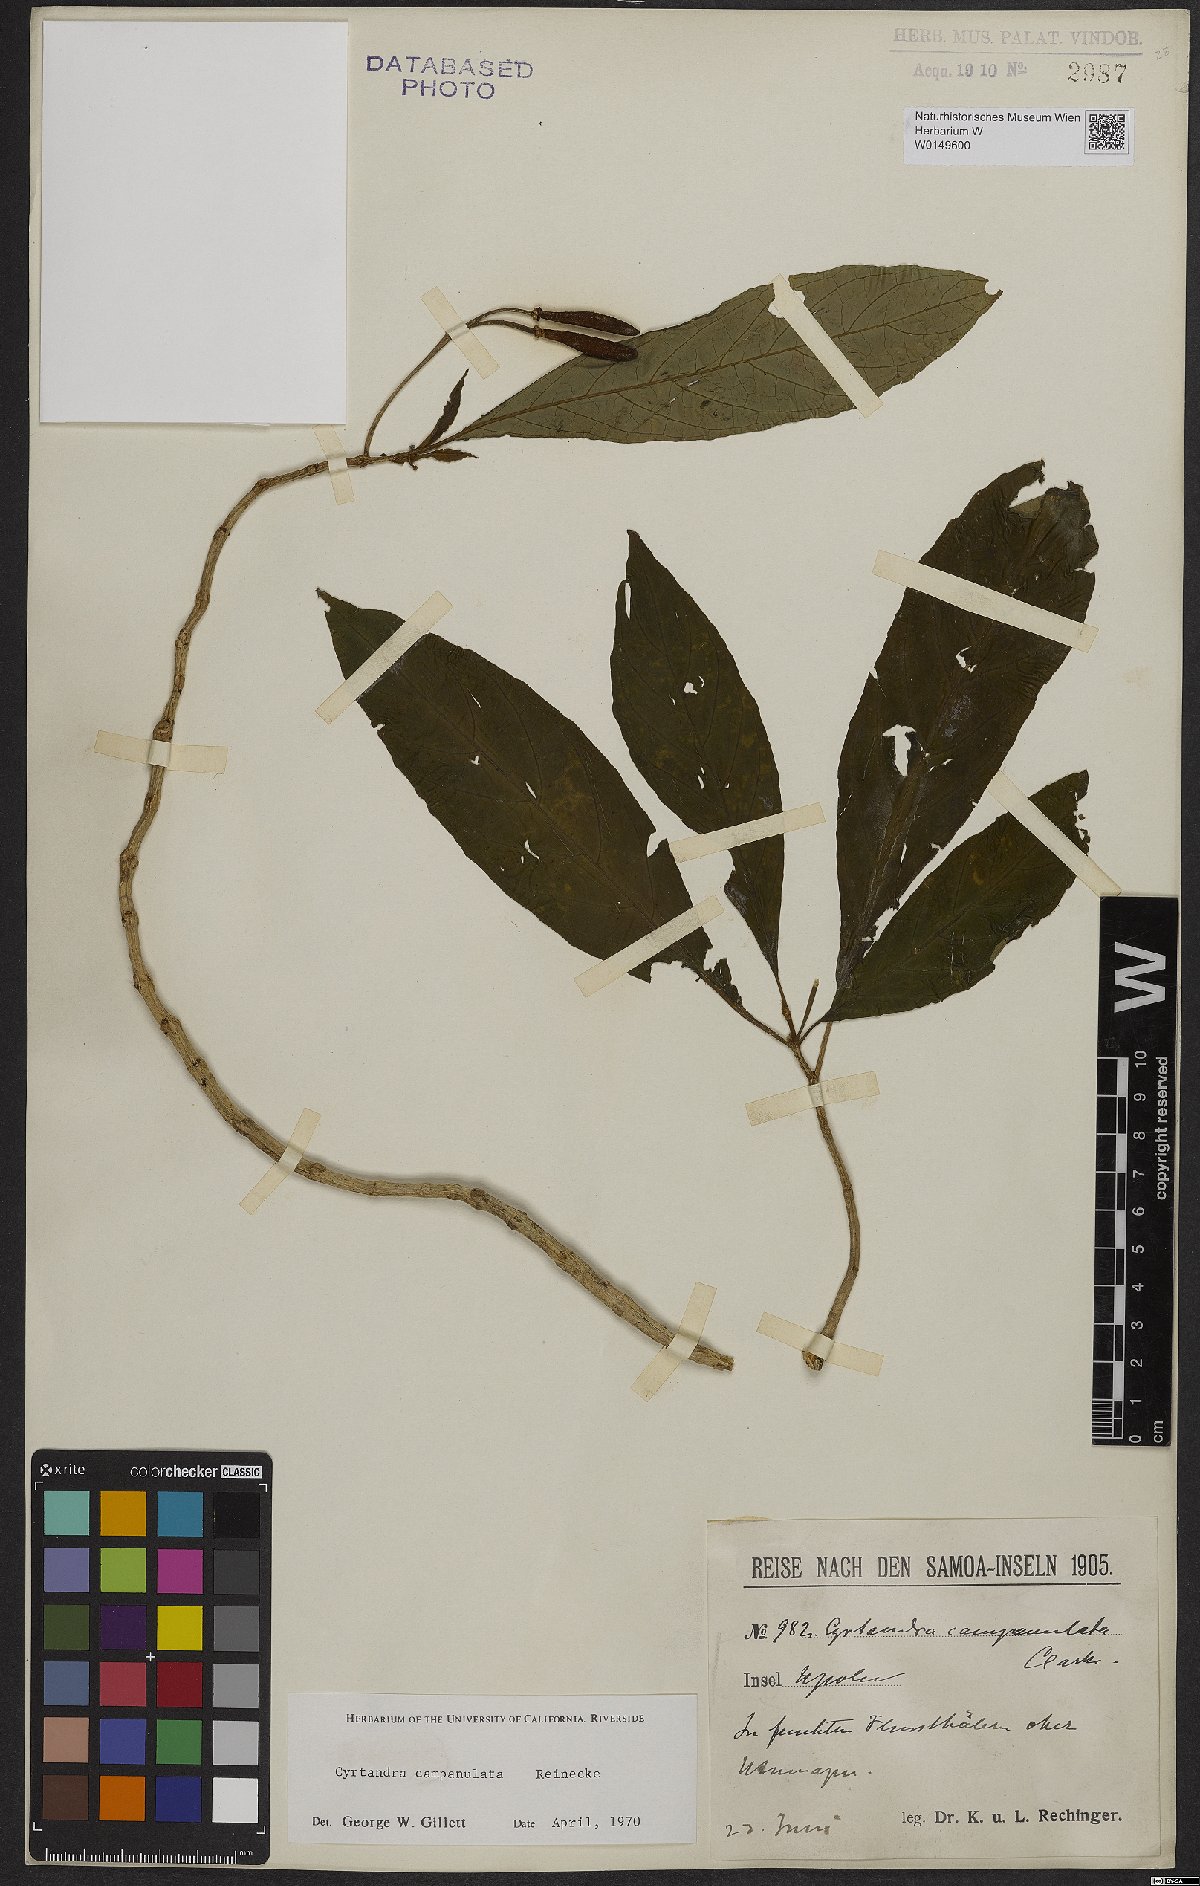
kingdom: Plantae
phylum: Tracheophyta
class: Magnoliopsida
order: Lamiales
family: Gesneriaceae
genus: Cyrtandra
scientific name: Cyrtandra campanulata
